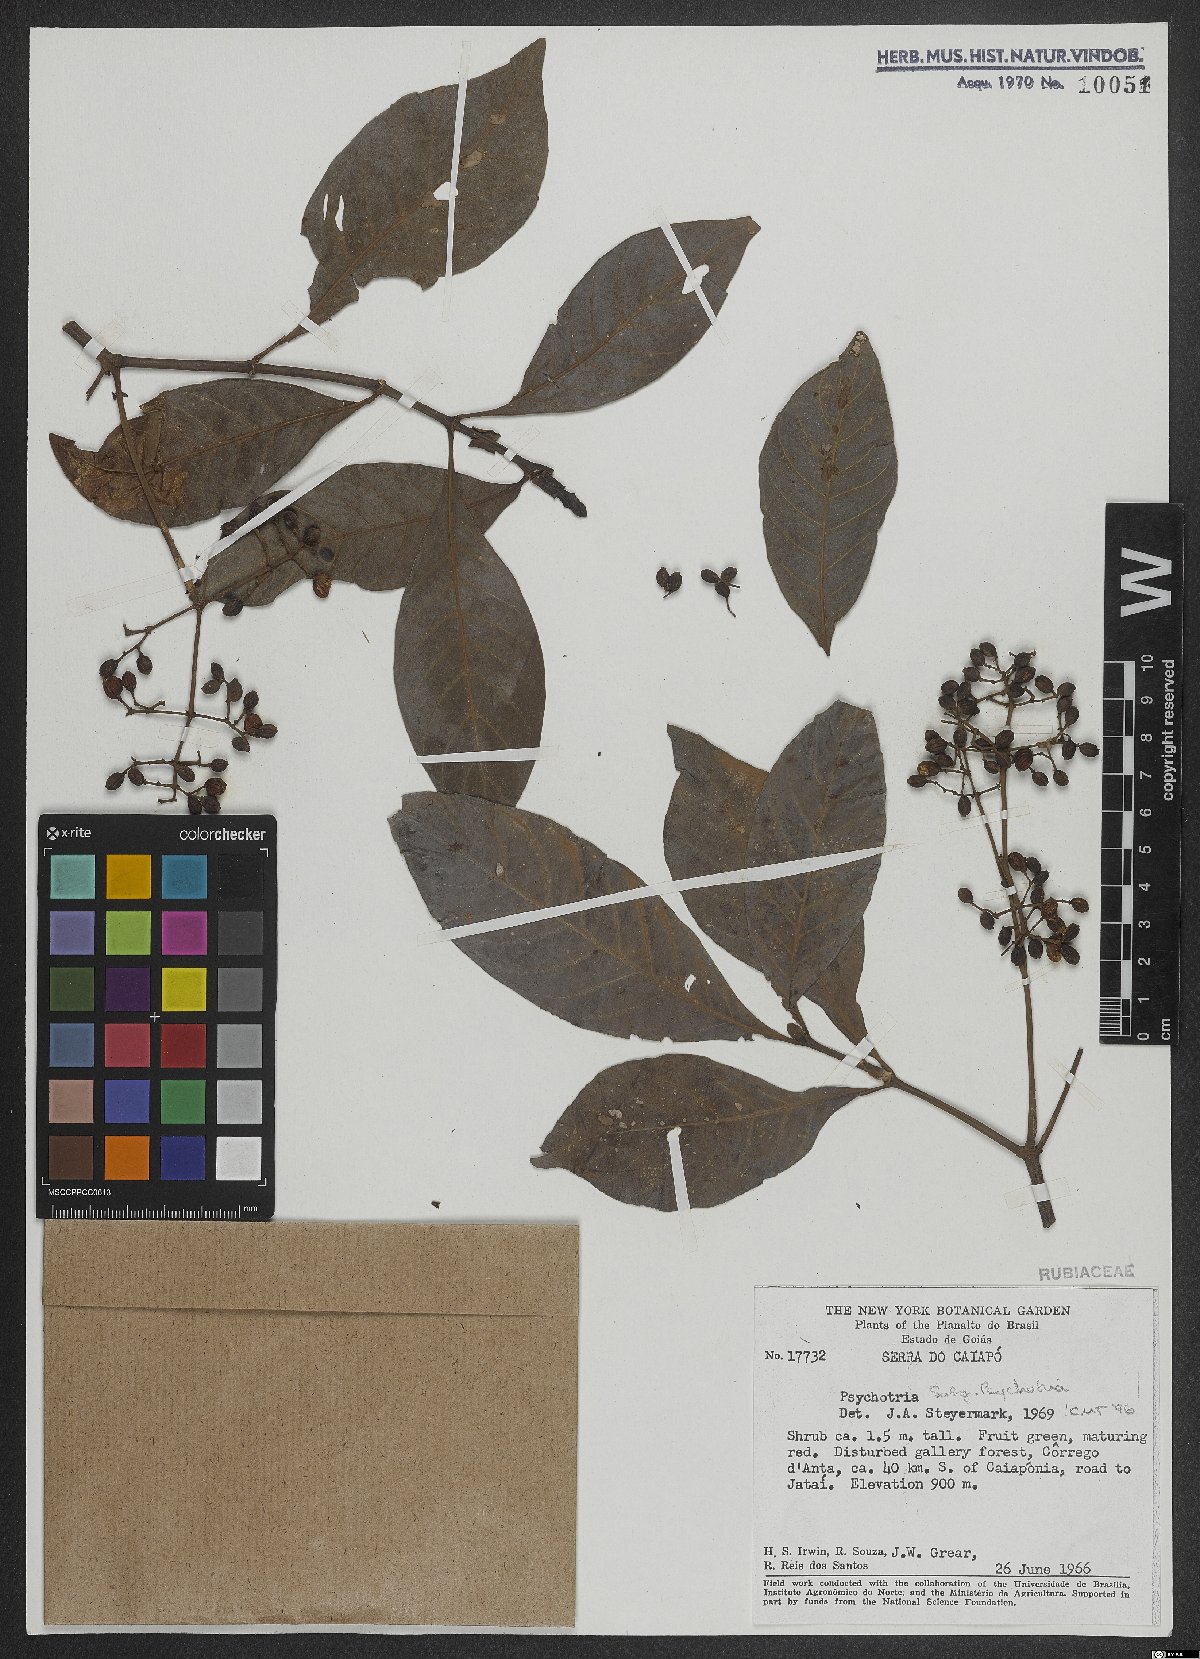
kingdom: Plantae
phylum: Tracheophyta
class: Magnoliopsida
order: Gentianales
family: Rubiaceae
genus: Psychotria
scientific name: Psychotria
